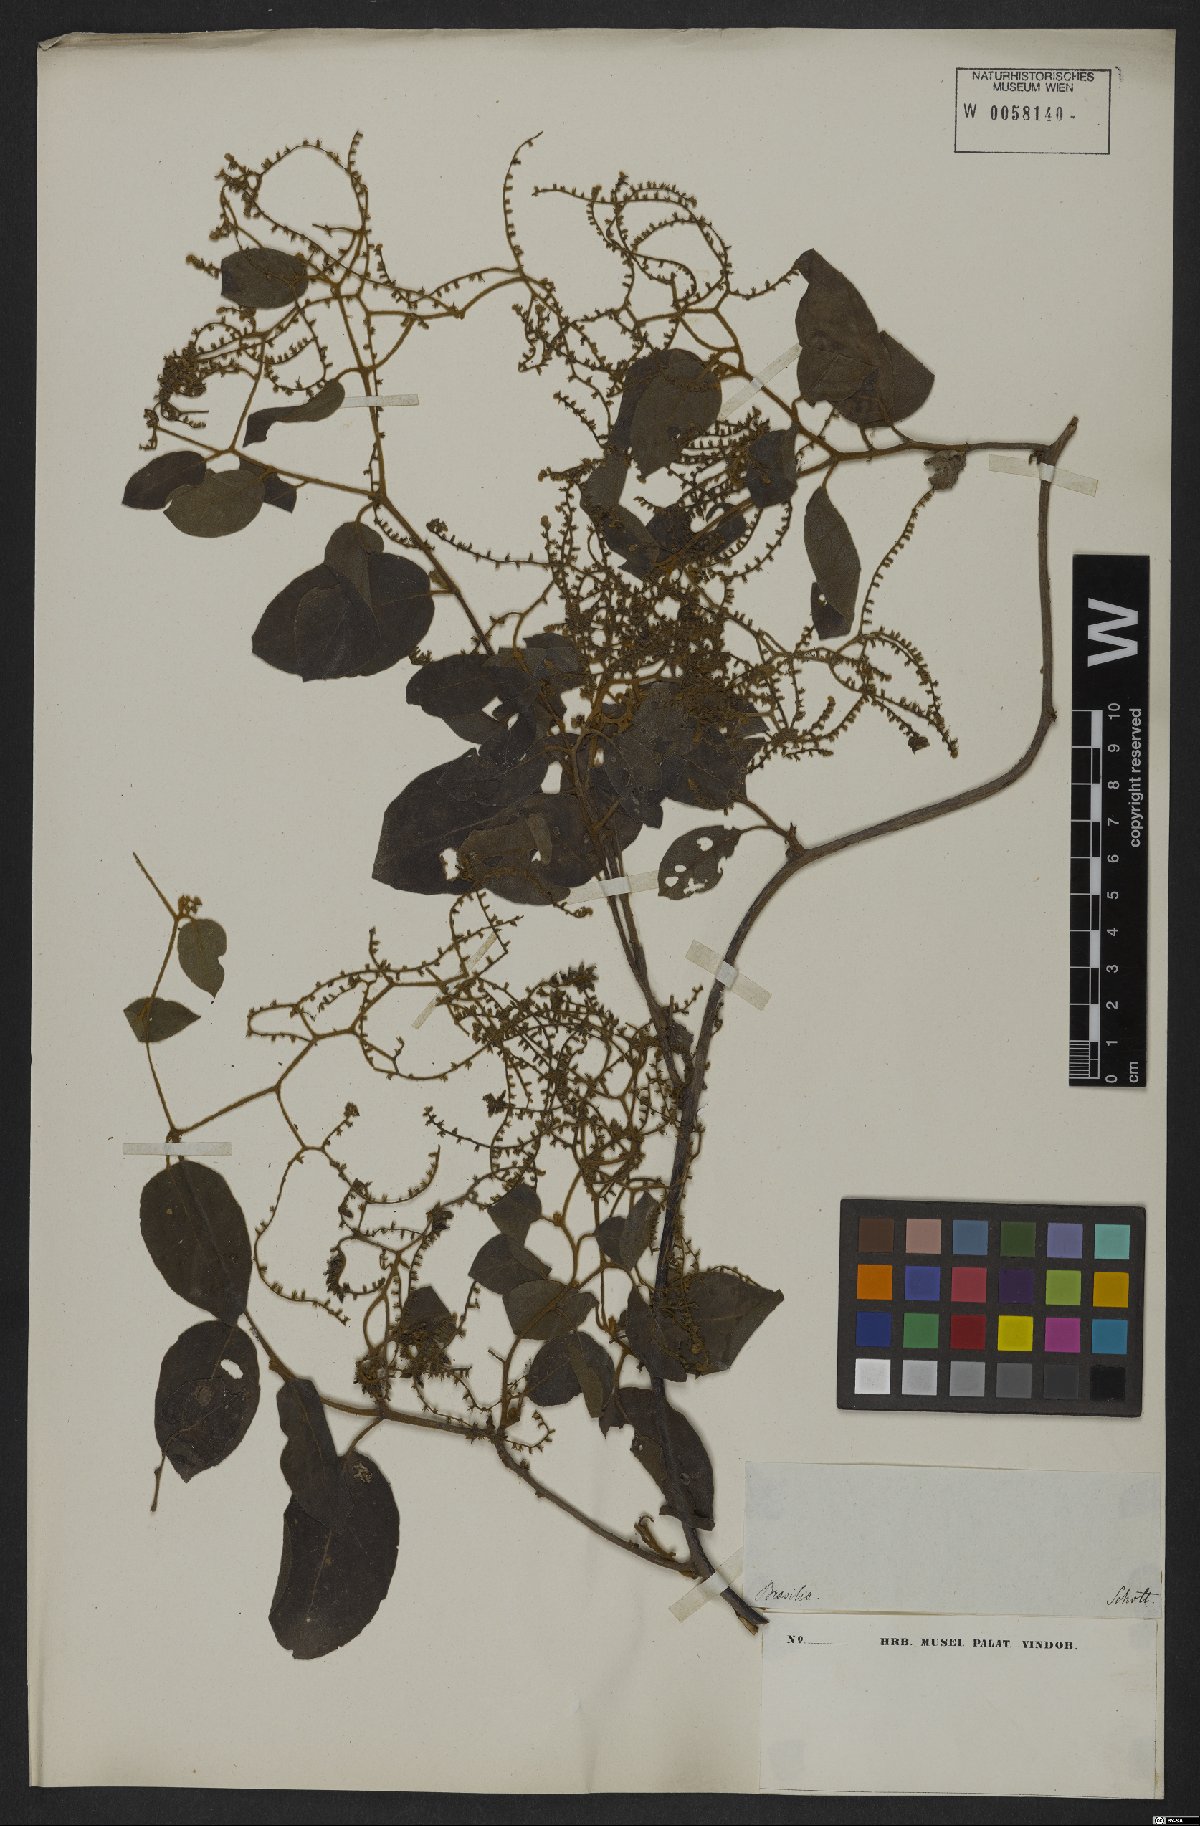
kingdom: Plantae
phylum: Tracheophyta
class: Magnoliopsida
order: Boraginales
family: Heliotropiaceae
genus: Myriopus
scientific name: Myriopus paniculatus
